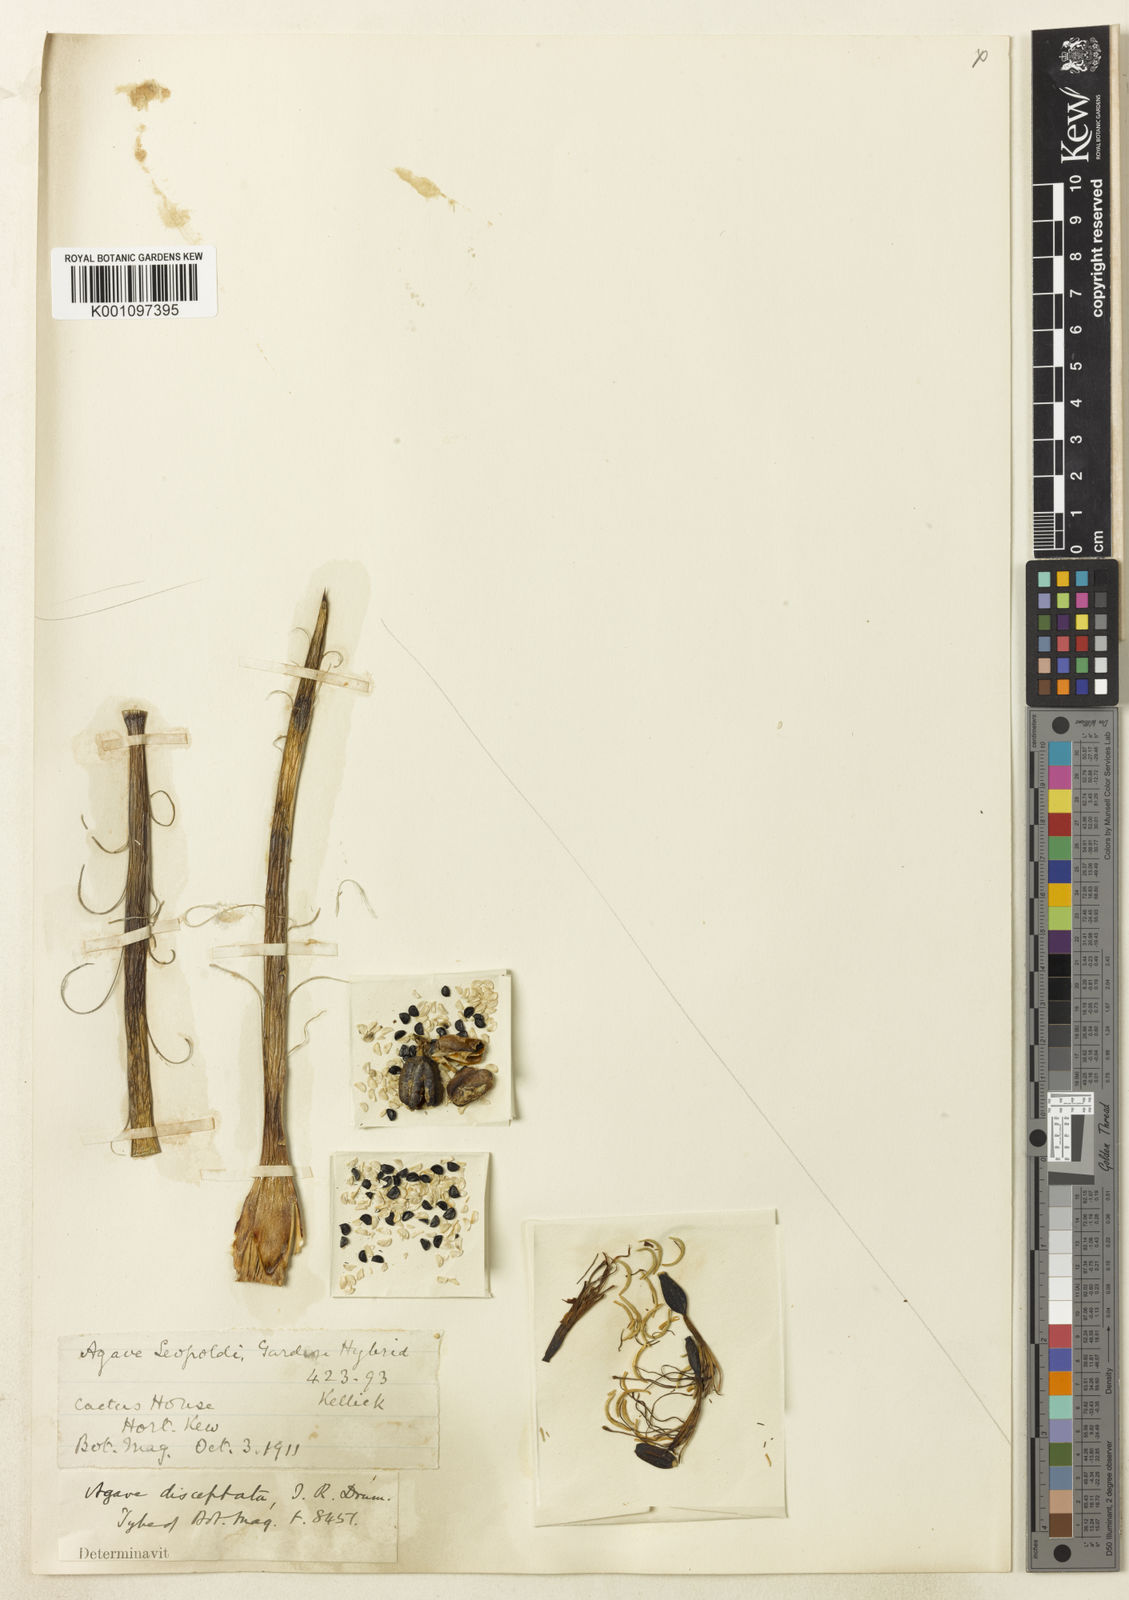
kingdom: Plantae
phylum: Tracheophyta
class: Liliopsida
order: Asparagales
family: Asparagaceae
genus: Agave
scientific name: Agave schidigera
